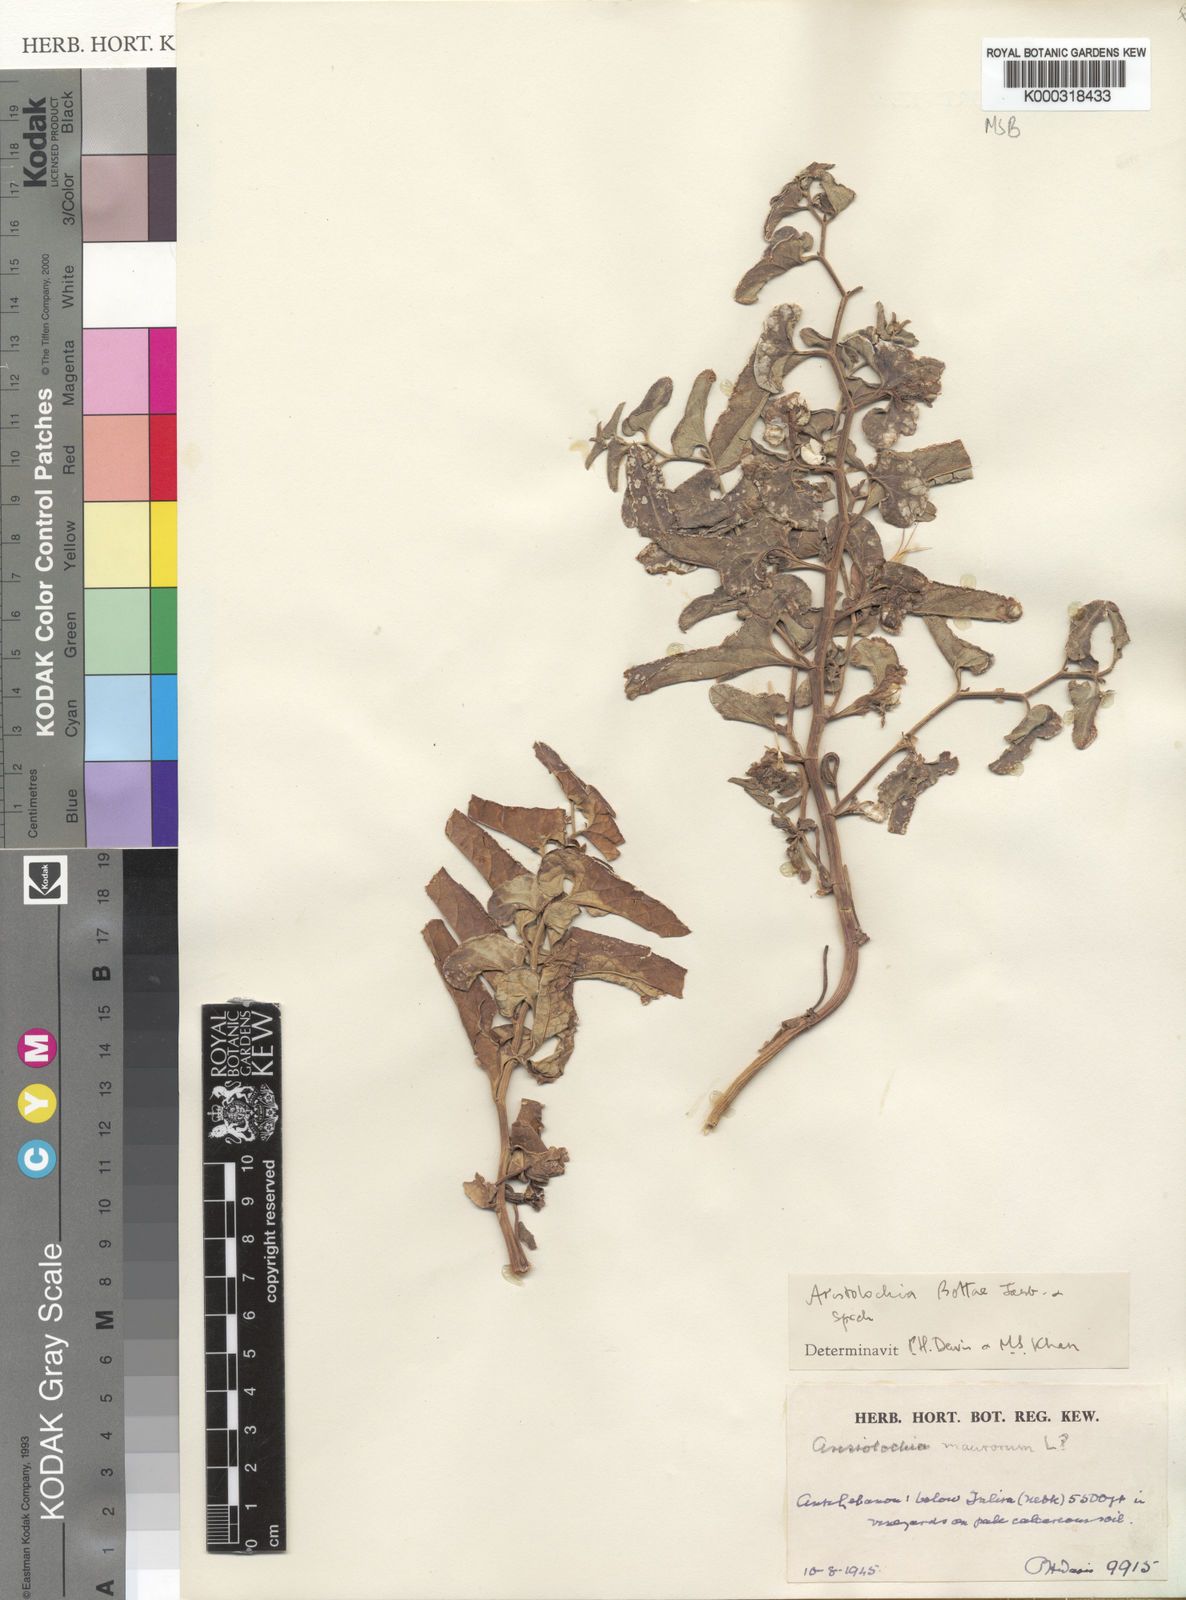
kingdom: Plantae
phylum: Tracheophyta
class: Magnoliopsida
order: Piperales
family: Aristolochiaceae
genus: Aristolochia
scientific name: Aristolochia bottae
